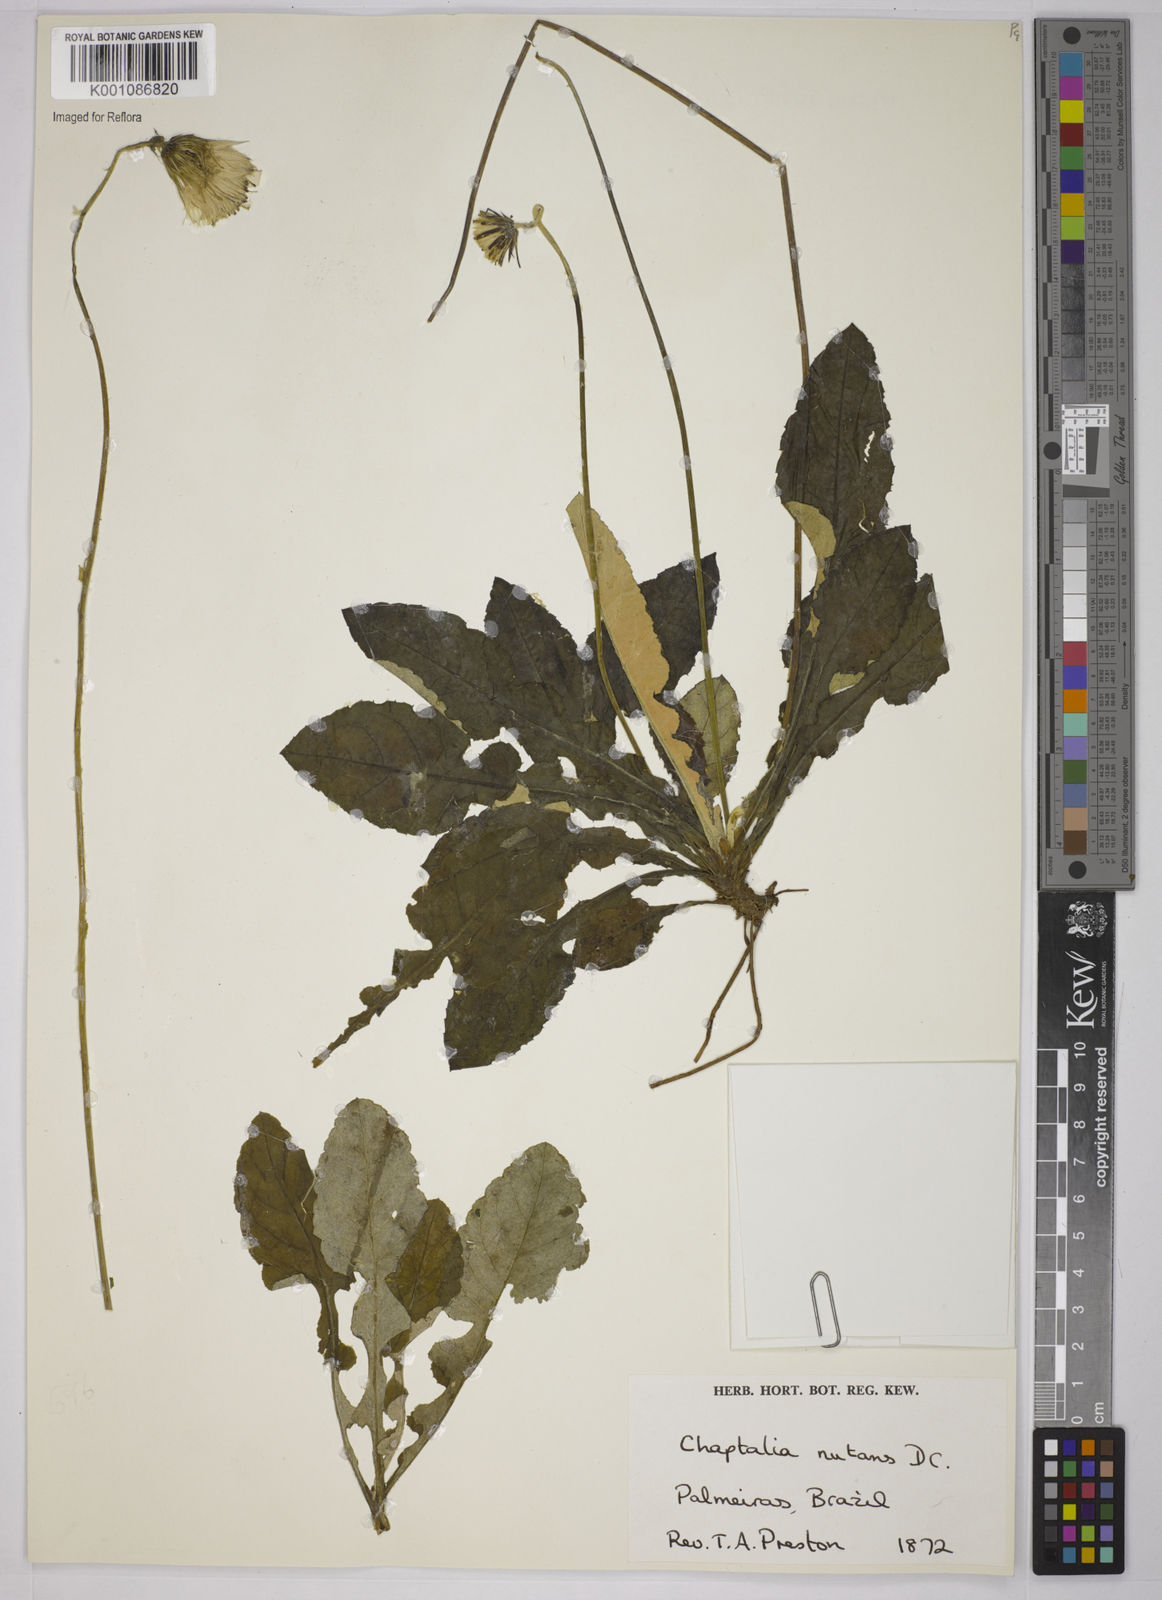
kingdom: Plantae
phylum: Tracheophyta
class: Magnoliopsida
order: Asterales
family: Asteraceae
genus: Chaptalia
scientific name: Chaptalia nutans
